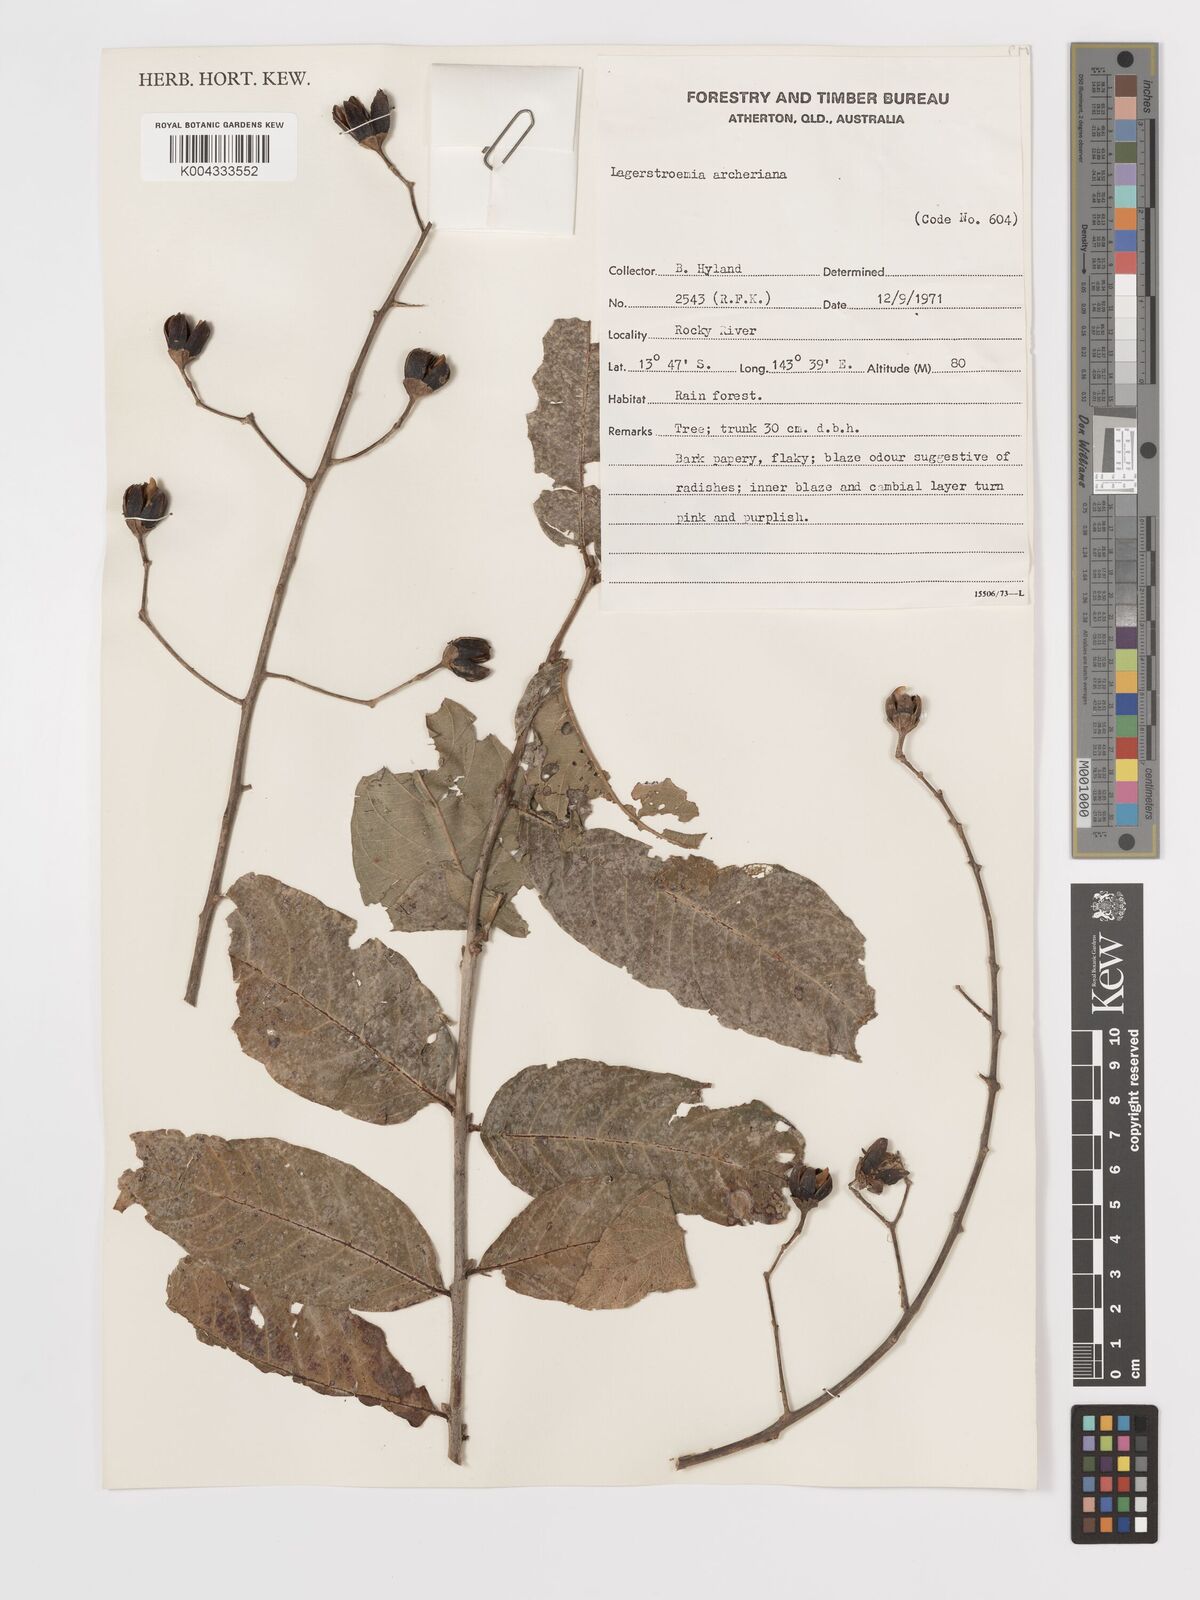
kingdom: Plantae
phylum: Tracheophyta
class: Magnoliopsida
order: Myrtales
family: Lythraceae
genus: Lagerstroemia
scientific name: Lagerstroemia engleriana
